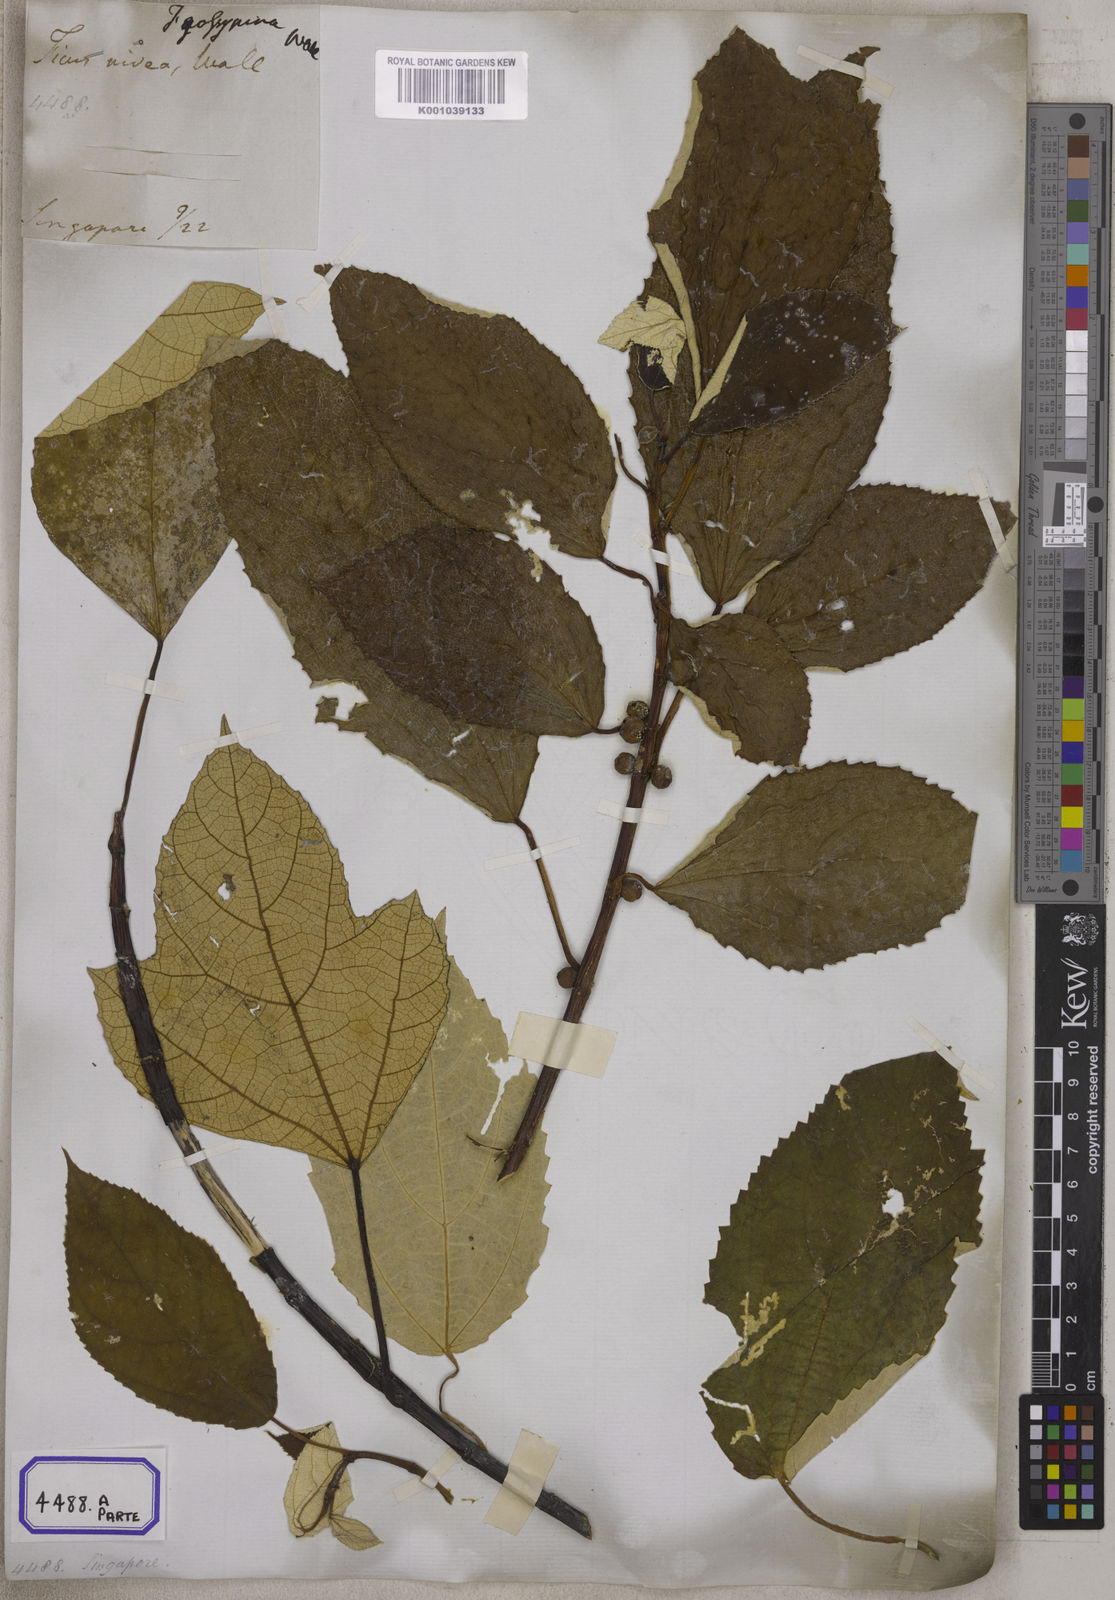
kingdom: Plantae
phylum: Tracheophyta
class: Magnoliopsida
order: Rosales
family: Moraceae
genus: Ficus
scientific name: Ficus
